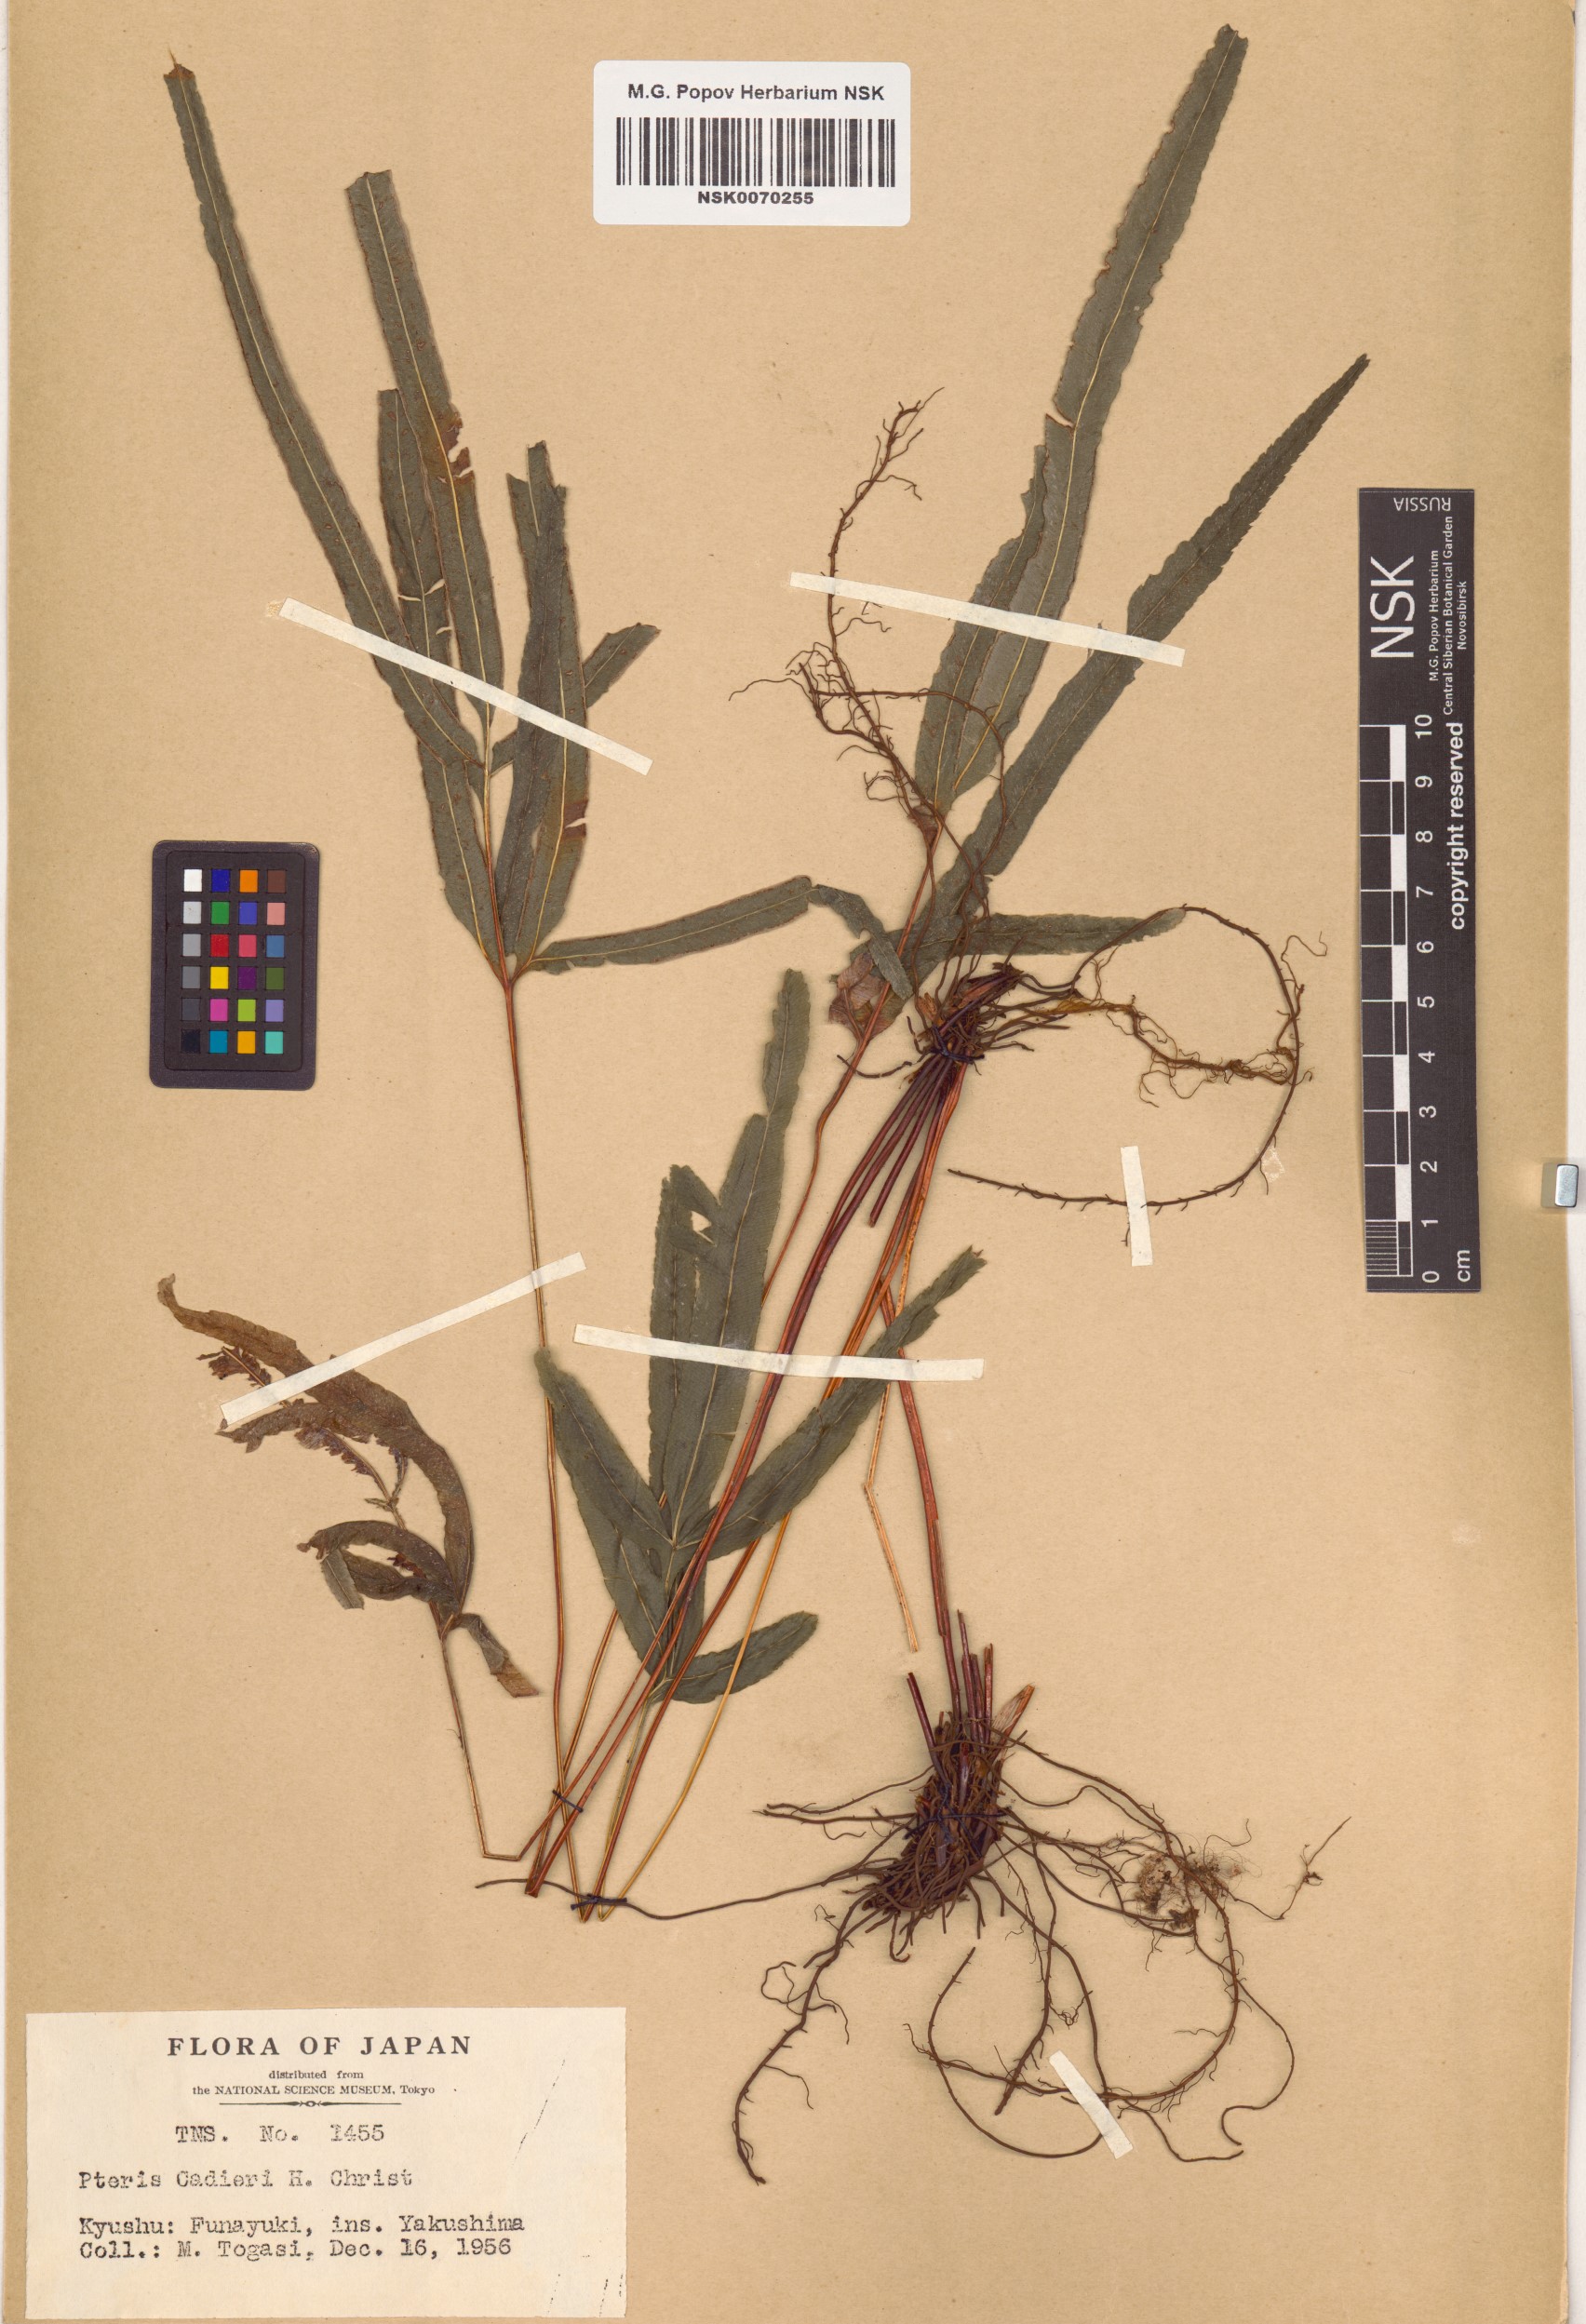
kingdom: Plantae
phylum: Tracheophyta
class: Polypodiopsida
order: Polypodiales
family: Pteridaceae
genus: Pteris
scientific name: Pteris cadieri
